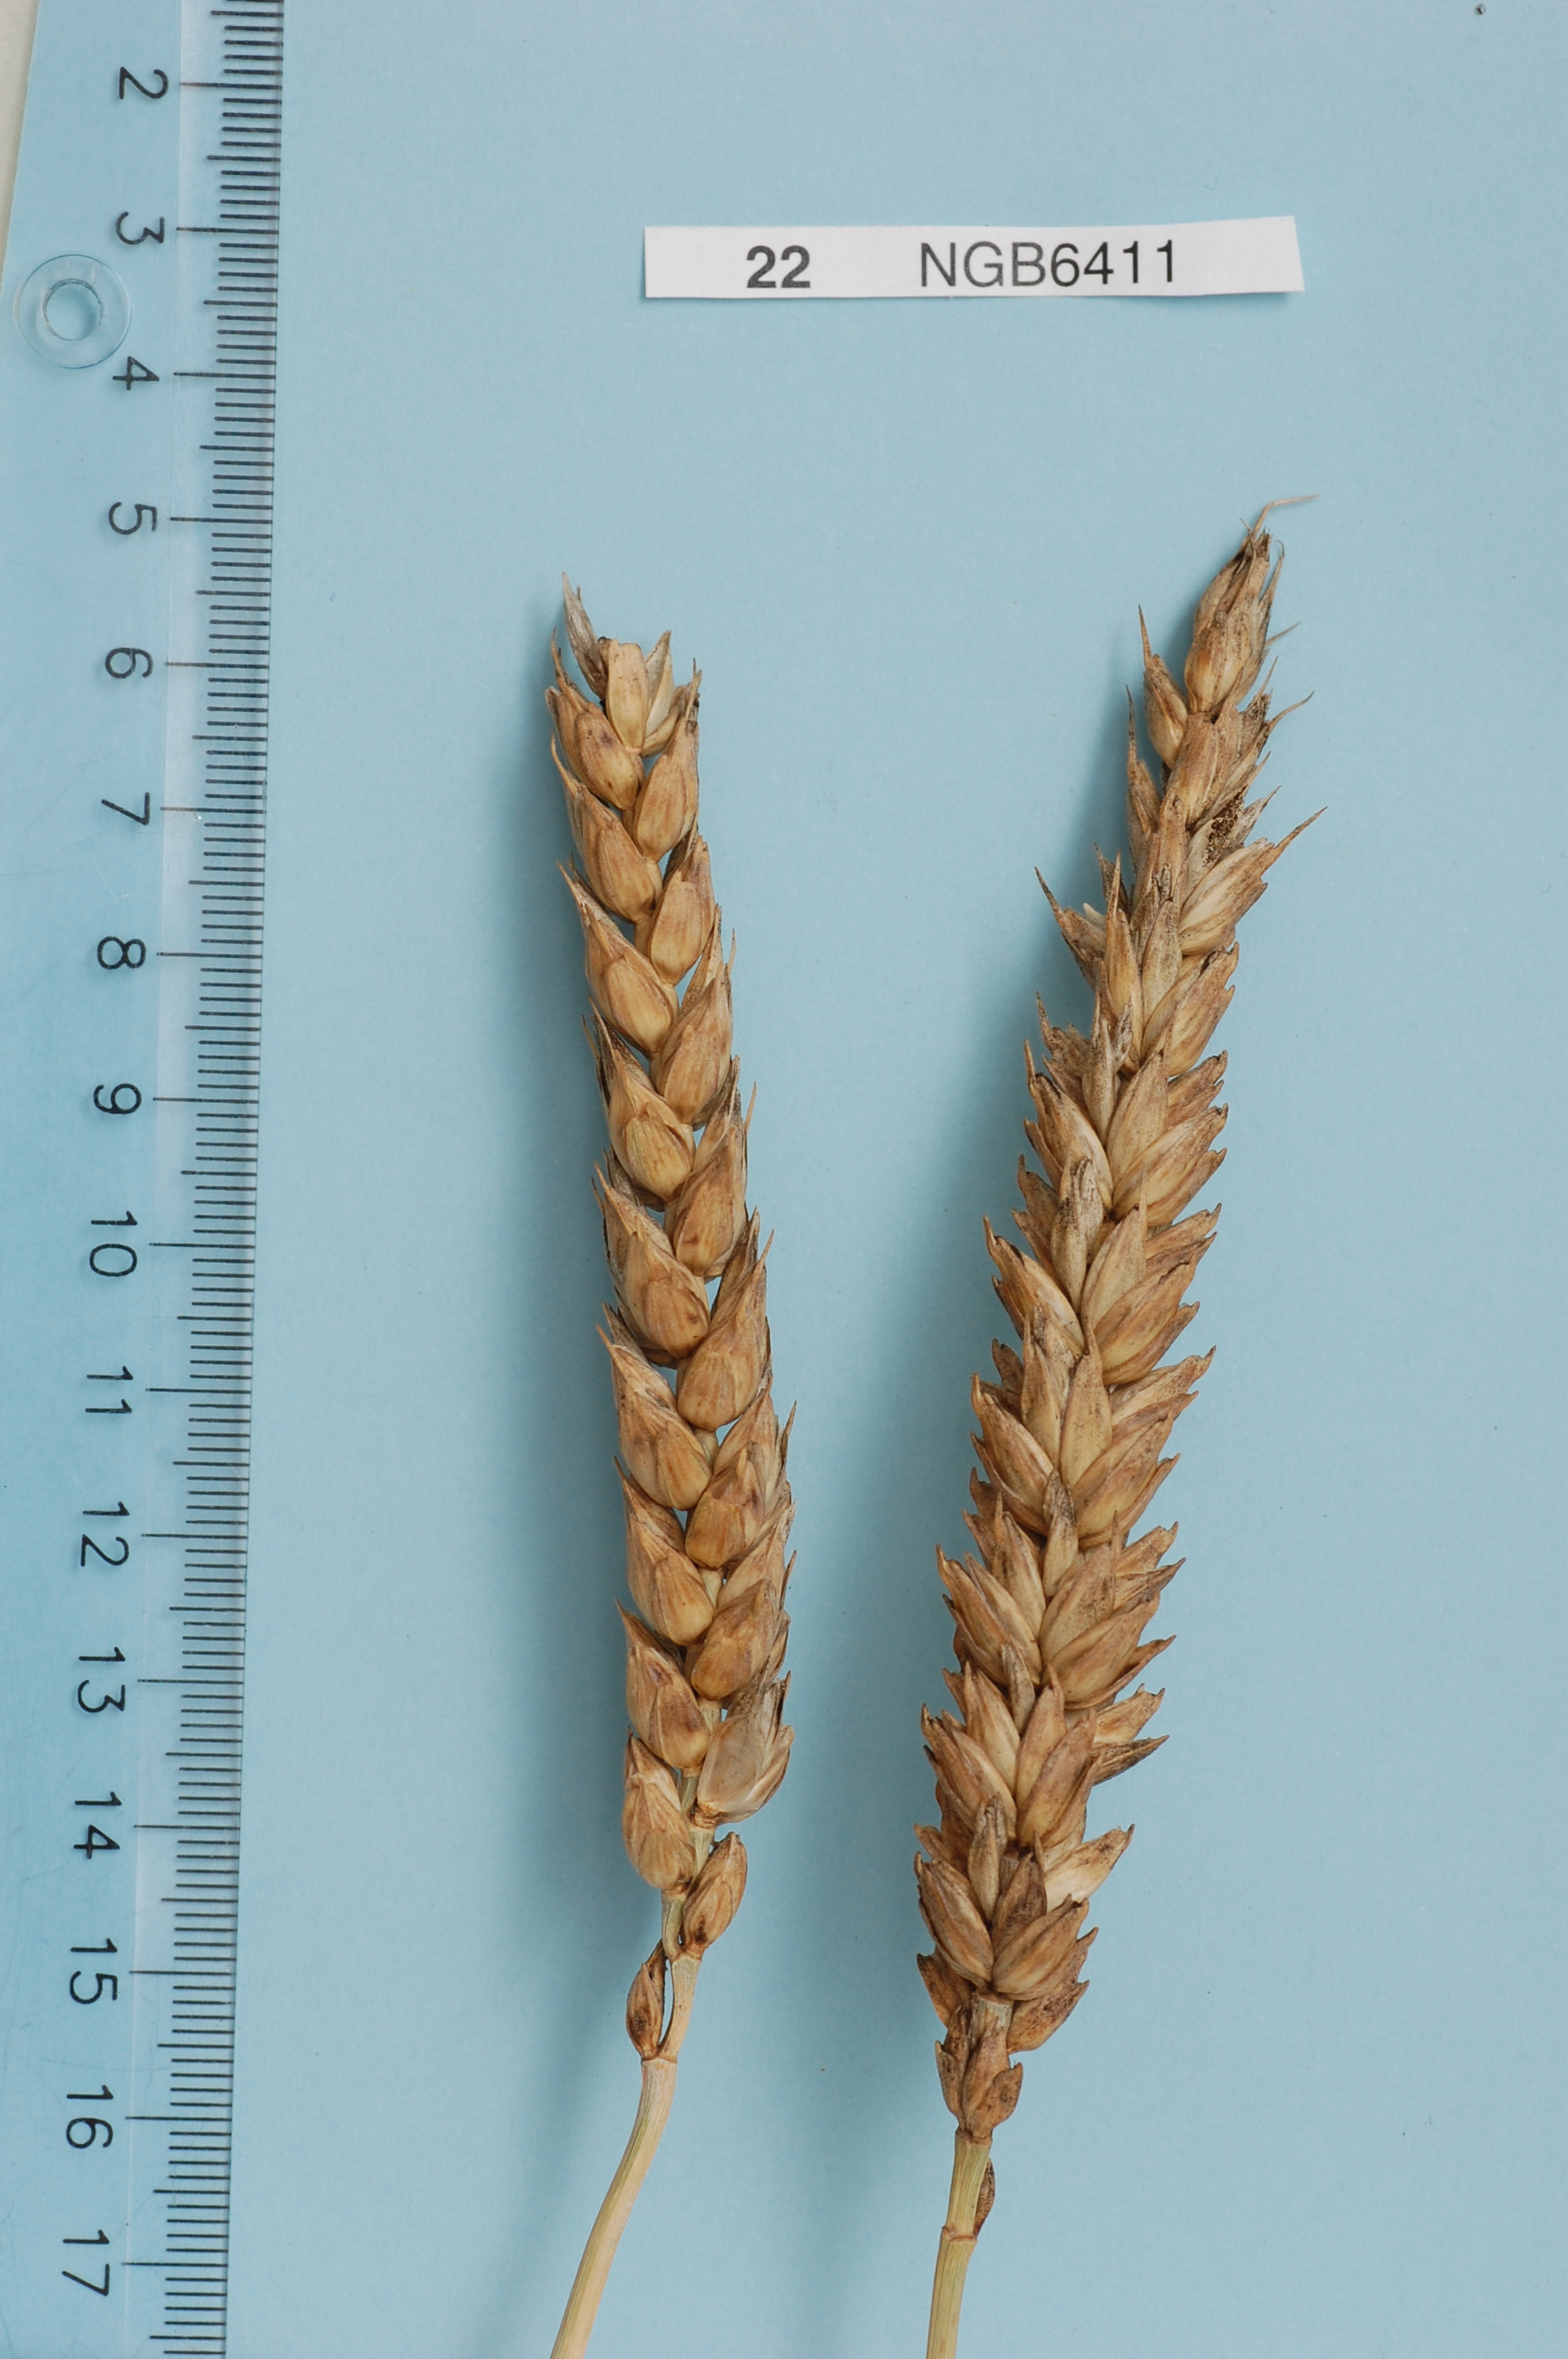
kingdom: Plantae
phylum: Tracheophyta
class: Liliopsida
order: Poales
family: Poaceae
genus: Triticum
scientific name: Triticum aestivum
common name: Common wheat
